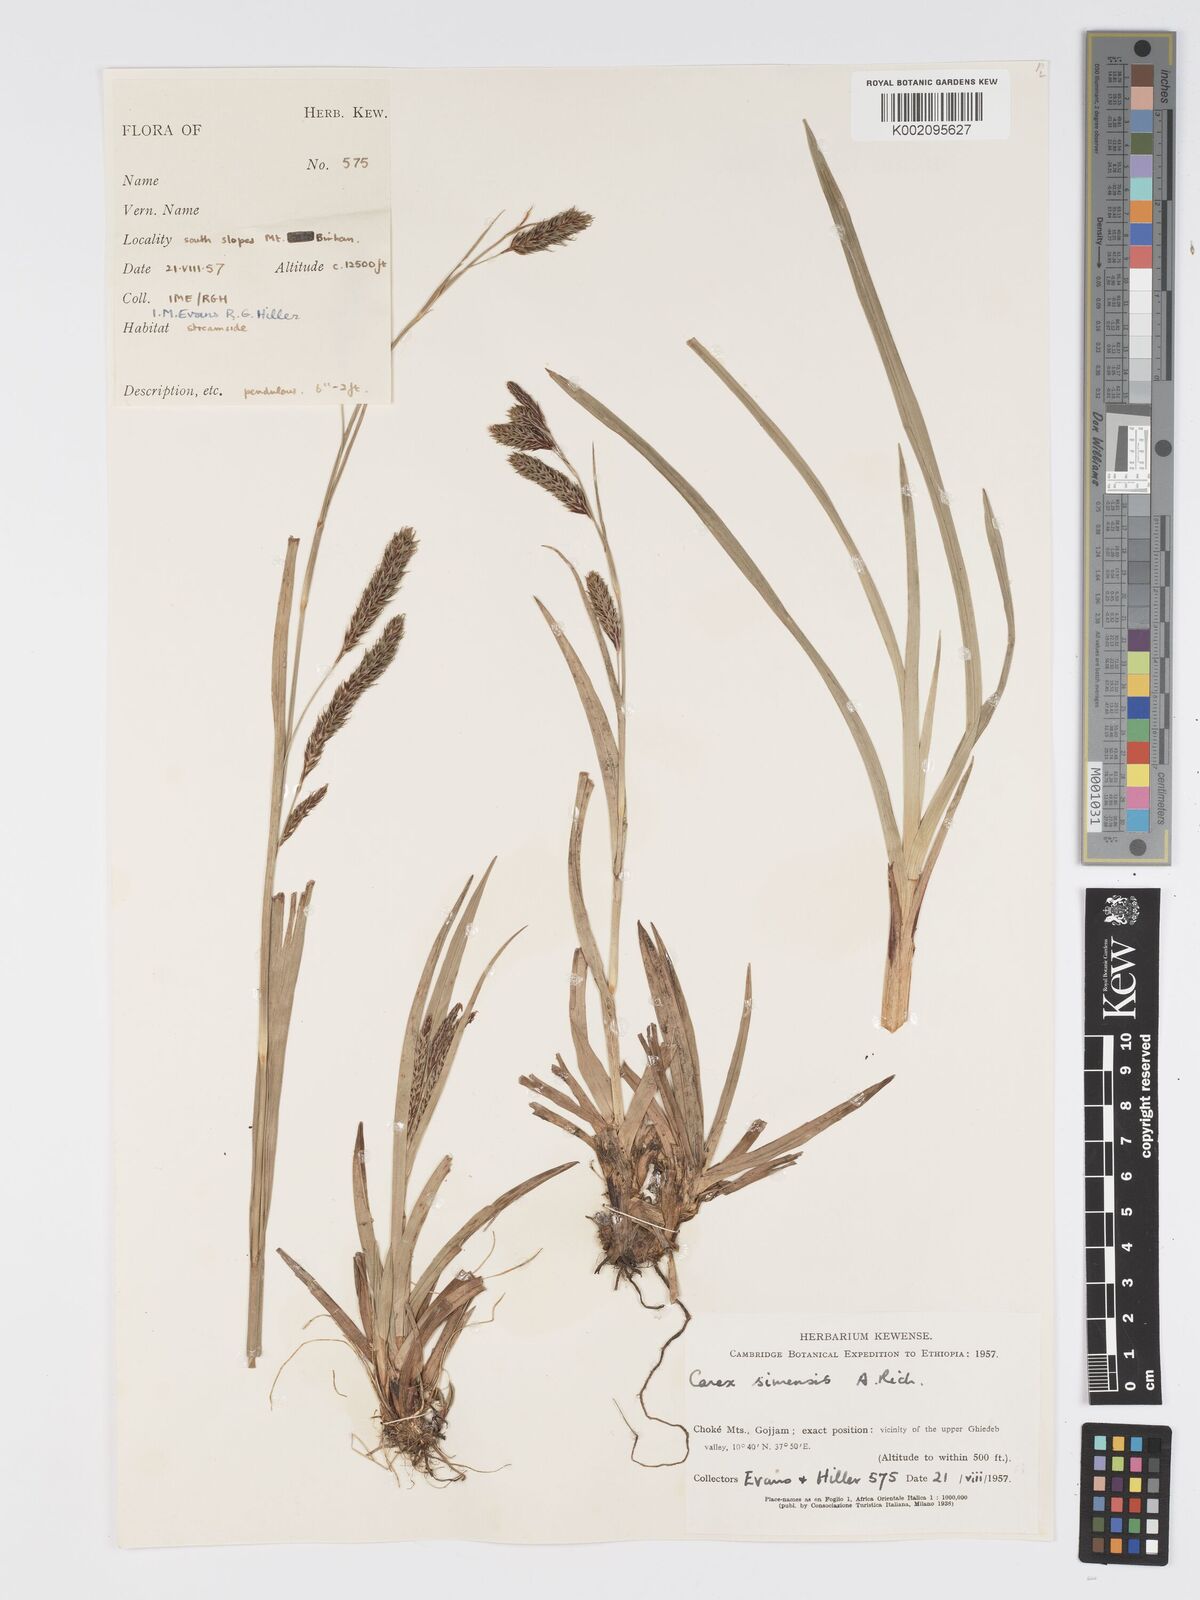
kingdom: Plantae
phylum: Tracheophyta
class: Liliopsida
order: Poales
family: Cyperaceae
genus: Carex
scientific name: Carex simensis
